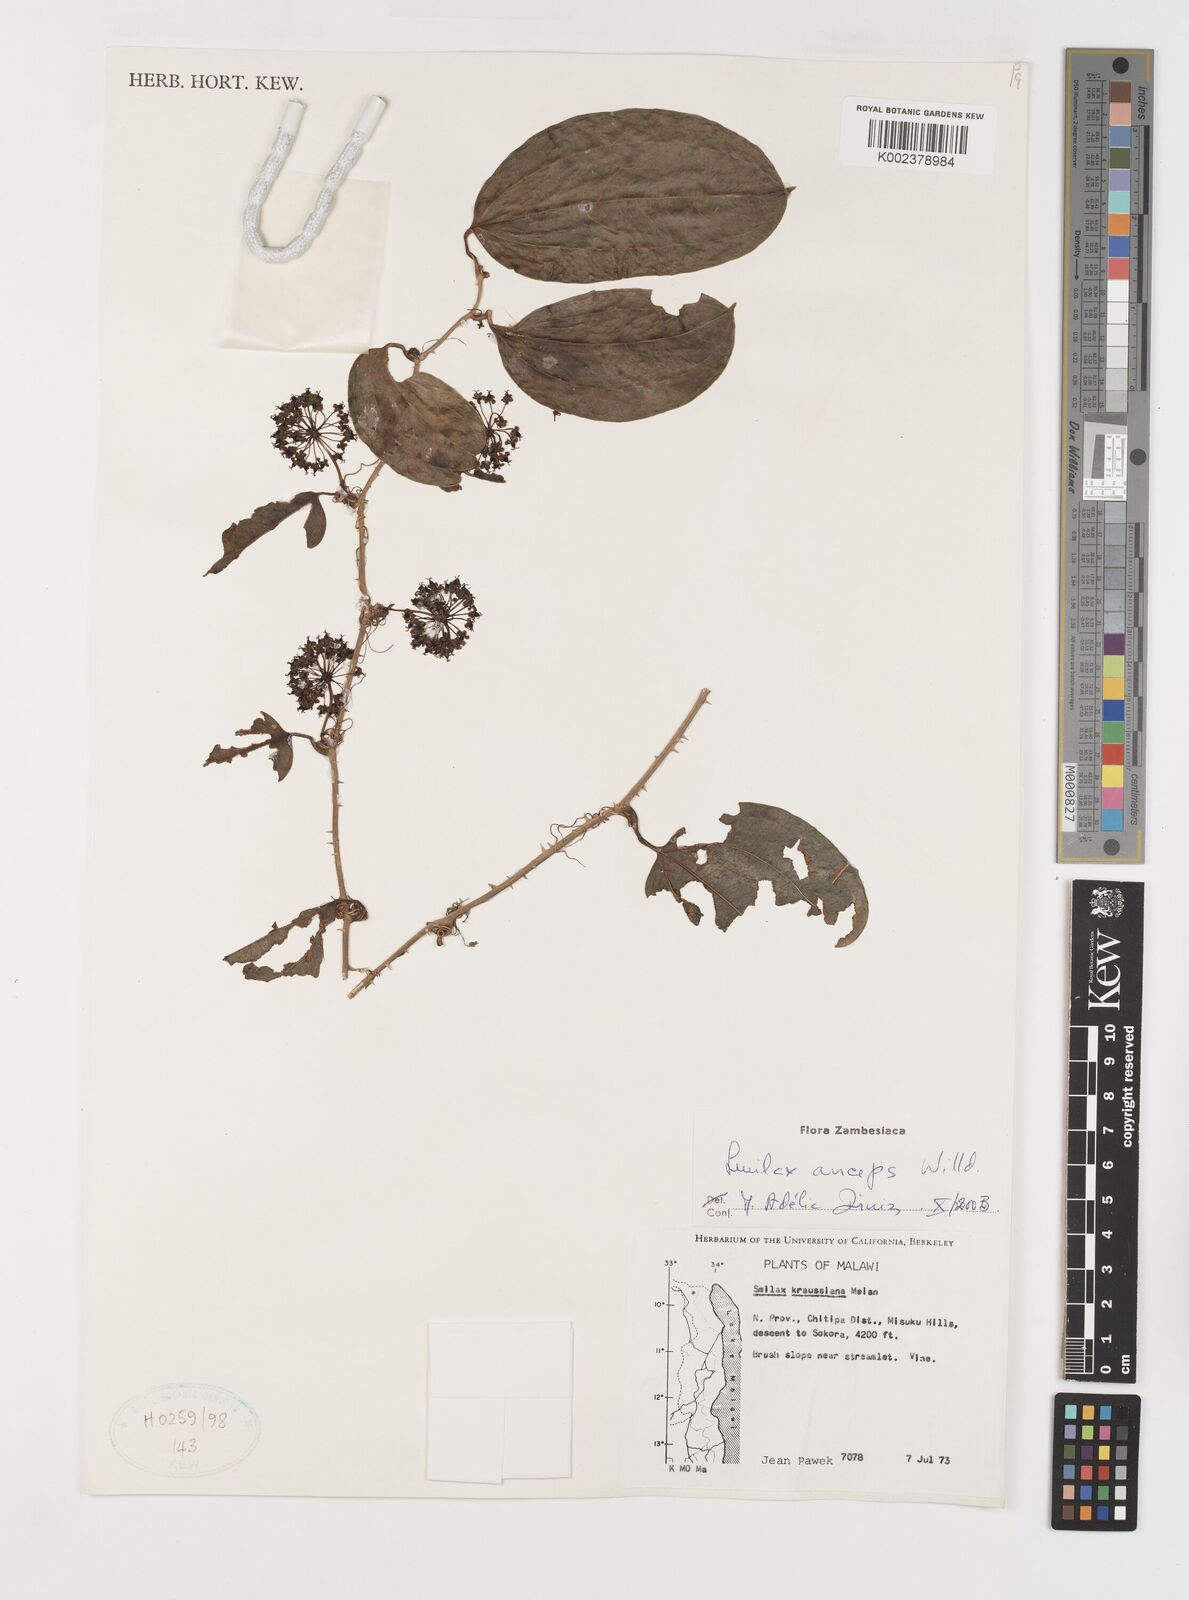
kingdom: Plantae
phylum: Tracheophyta
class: Liliopsida
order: Liliales
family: Smilacaceae
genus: Smilax
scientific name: Smilax anceps
